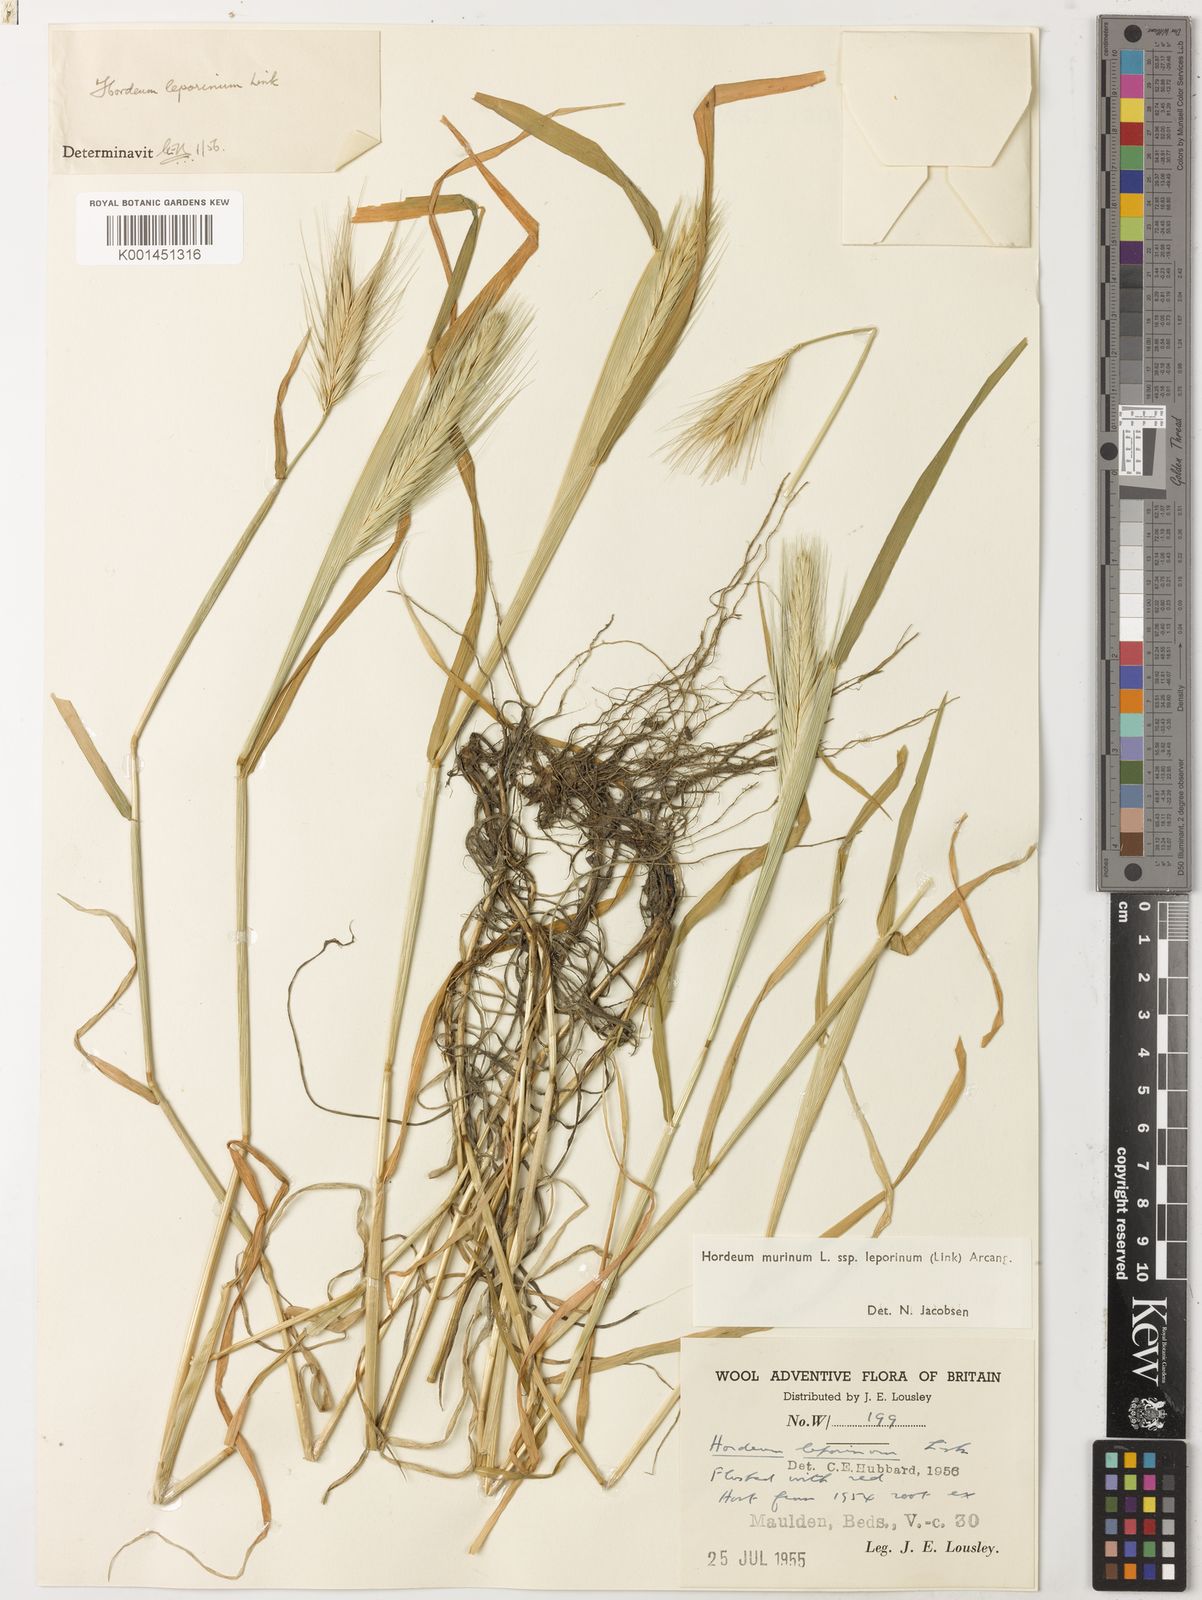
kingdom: Plantae
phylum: Tracheophyta
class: Liliopsida
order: Poales
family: Poaceae
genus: Hordeum
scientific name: Hordeum murinum
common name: Wall barley
